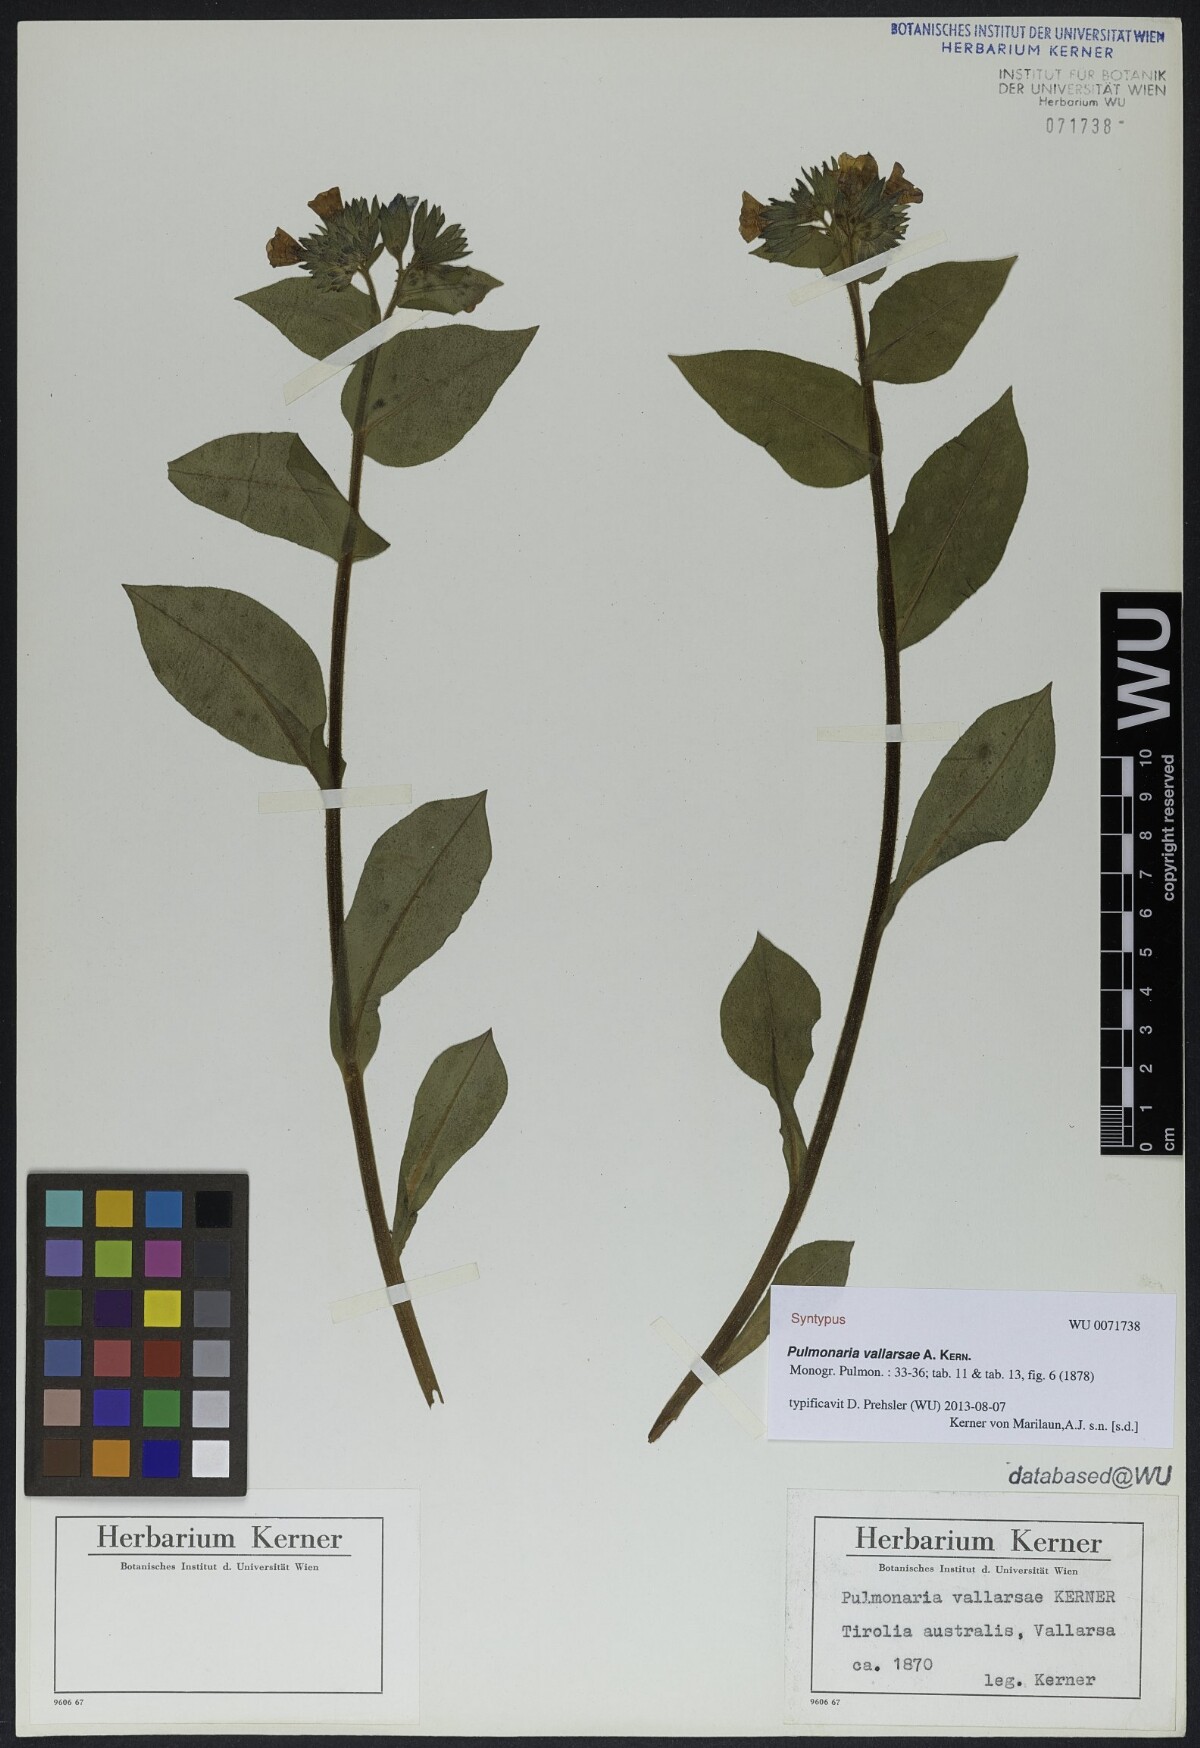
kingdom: Plantae
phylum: Tracheophyta
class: Magnoliopsida
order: Boraginales
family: Boraginaceae
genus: Pulmonaria
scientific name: Pulmonaria hirta
